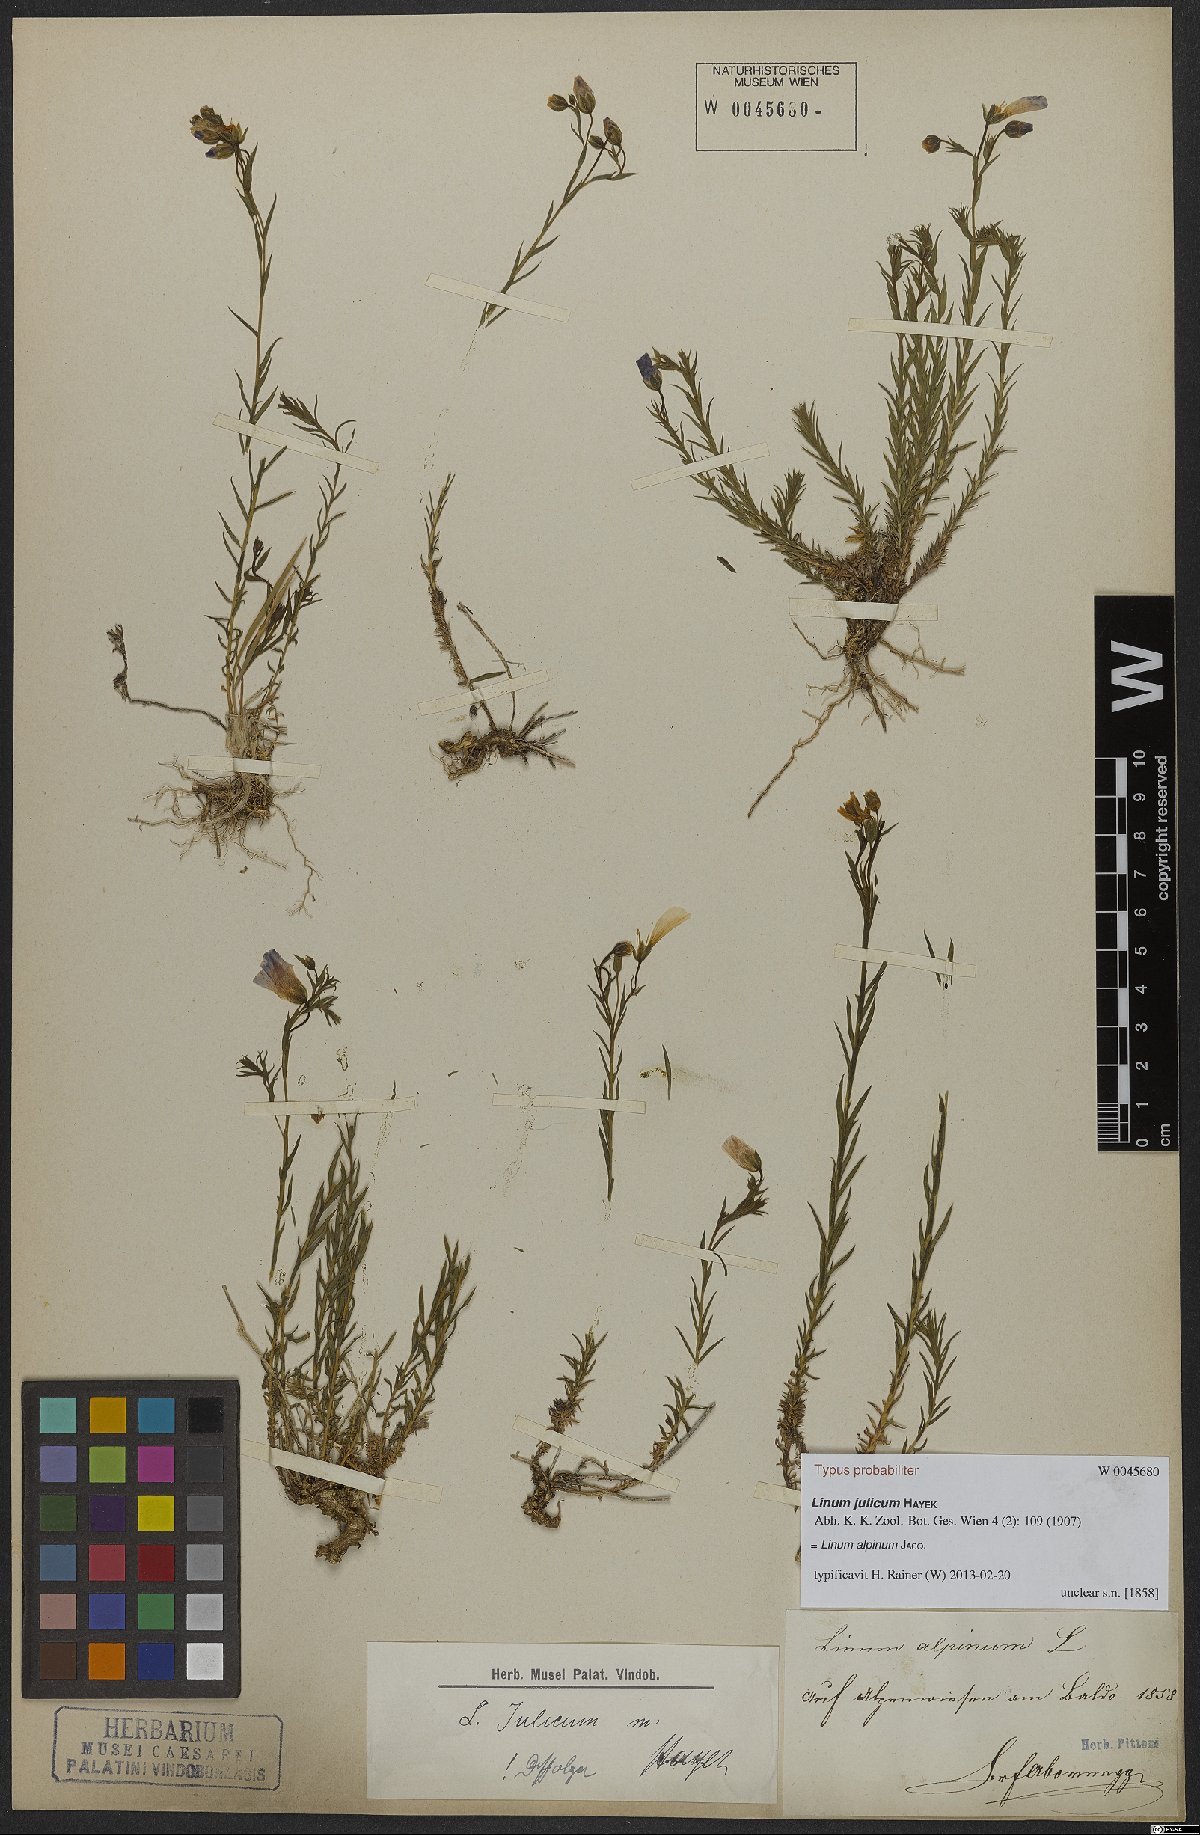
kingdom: Plantae
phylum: Tracheophyta
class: Magnoliopsida
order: Malpighiales
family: Linaceae
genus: Linum
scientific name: Linum alpinum
